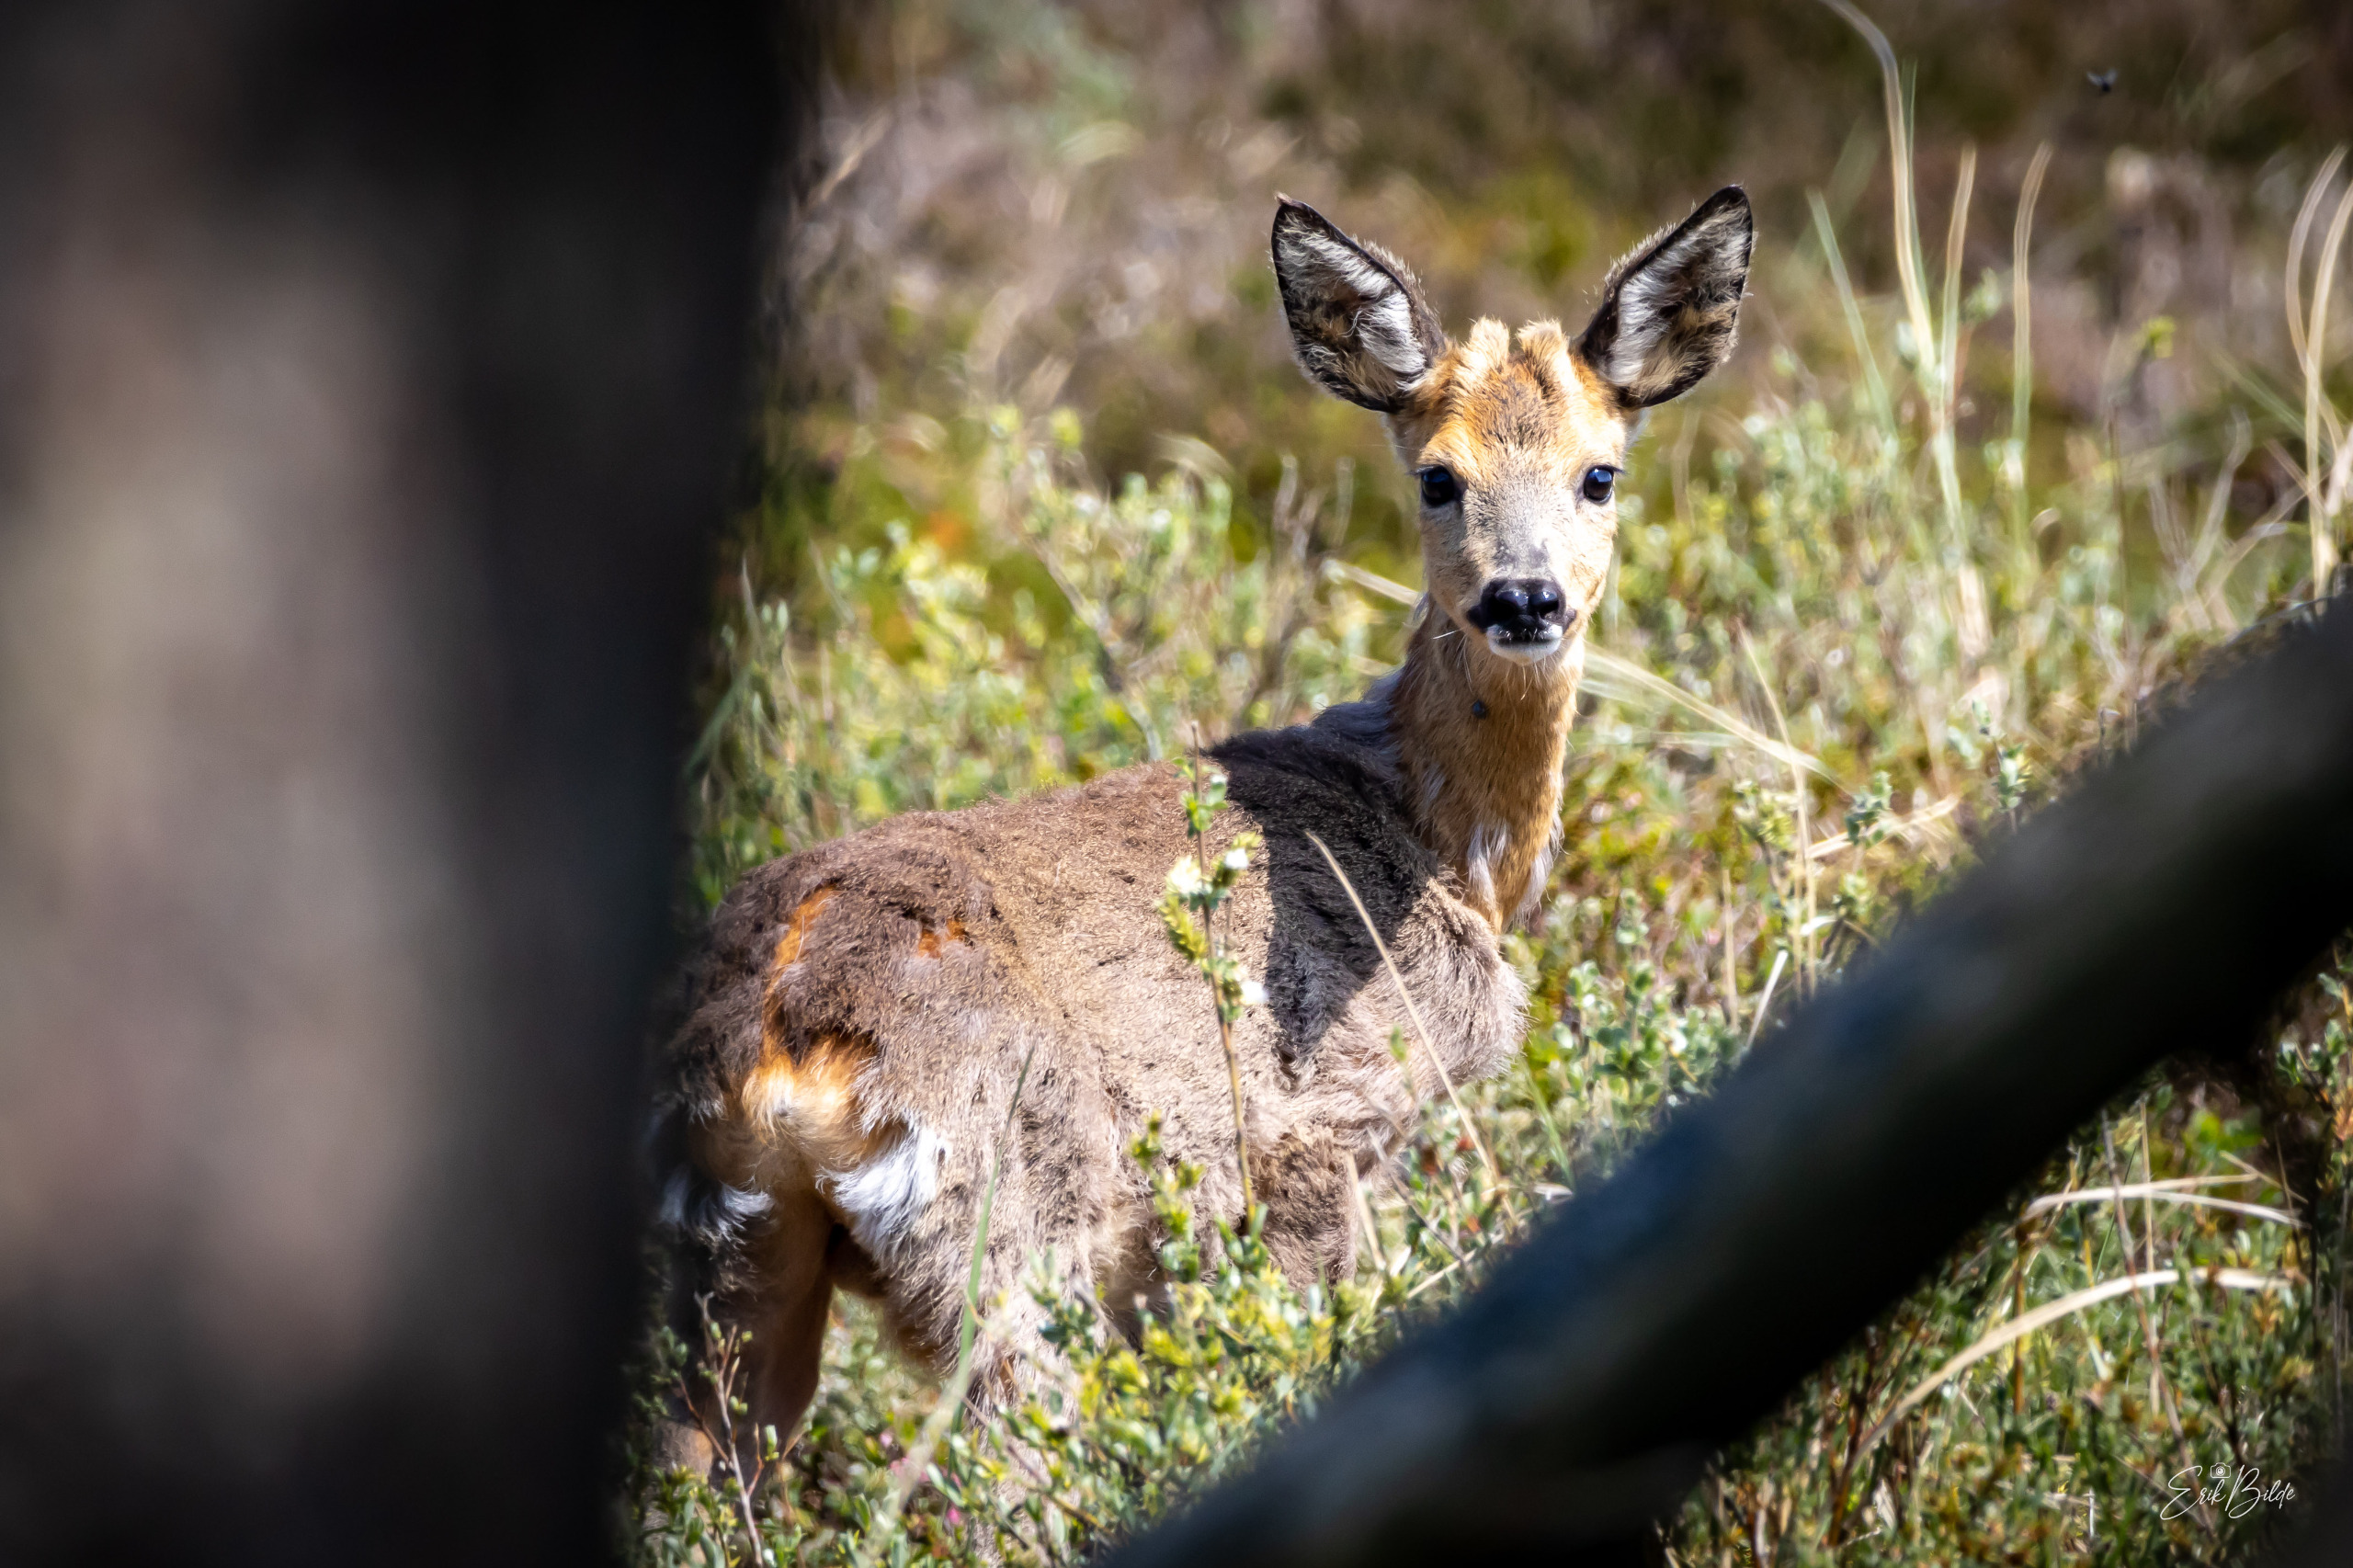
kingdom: Animalia
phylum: Chordata
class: Mammalia
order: Artiodactyla
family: Cervidae
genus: Capreolus
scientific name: Capreolus capreolus
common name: Rådyr
